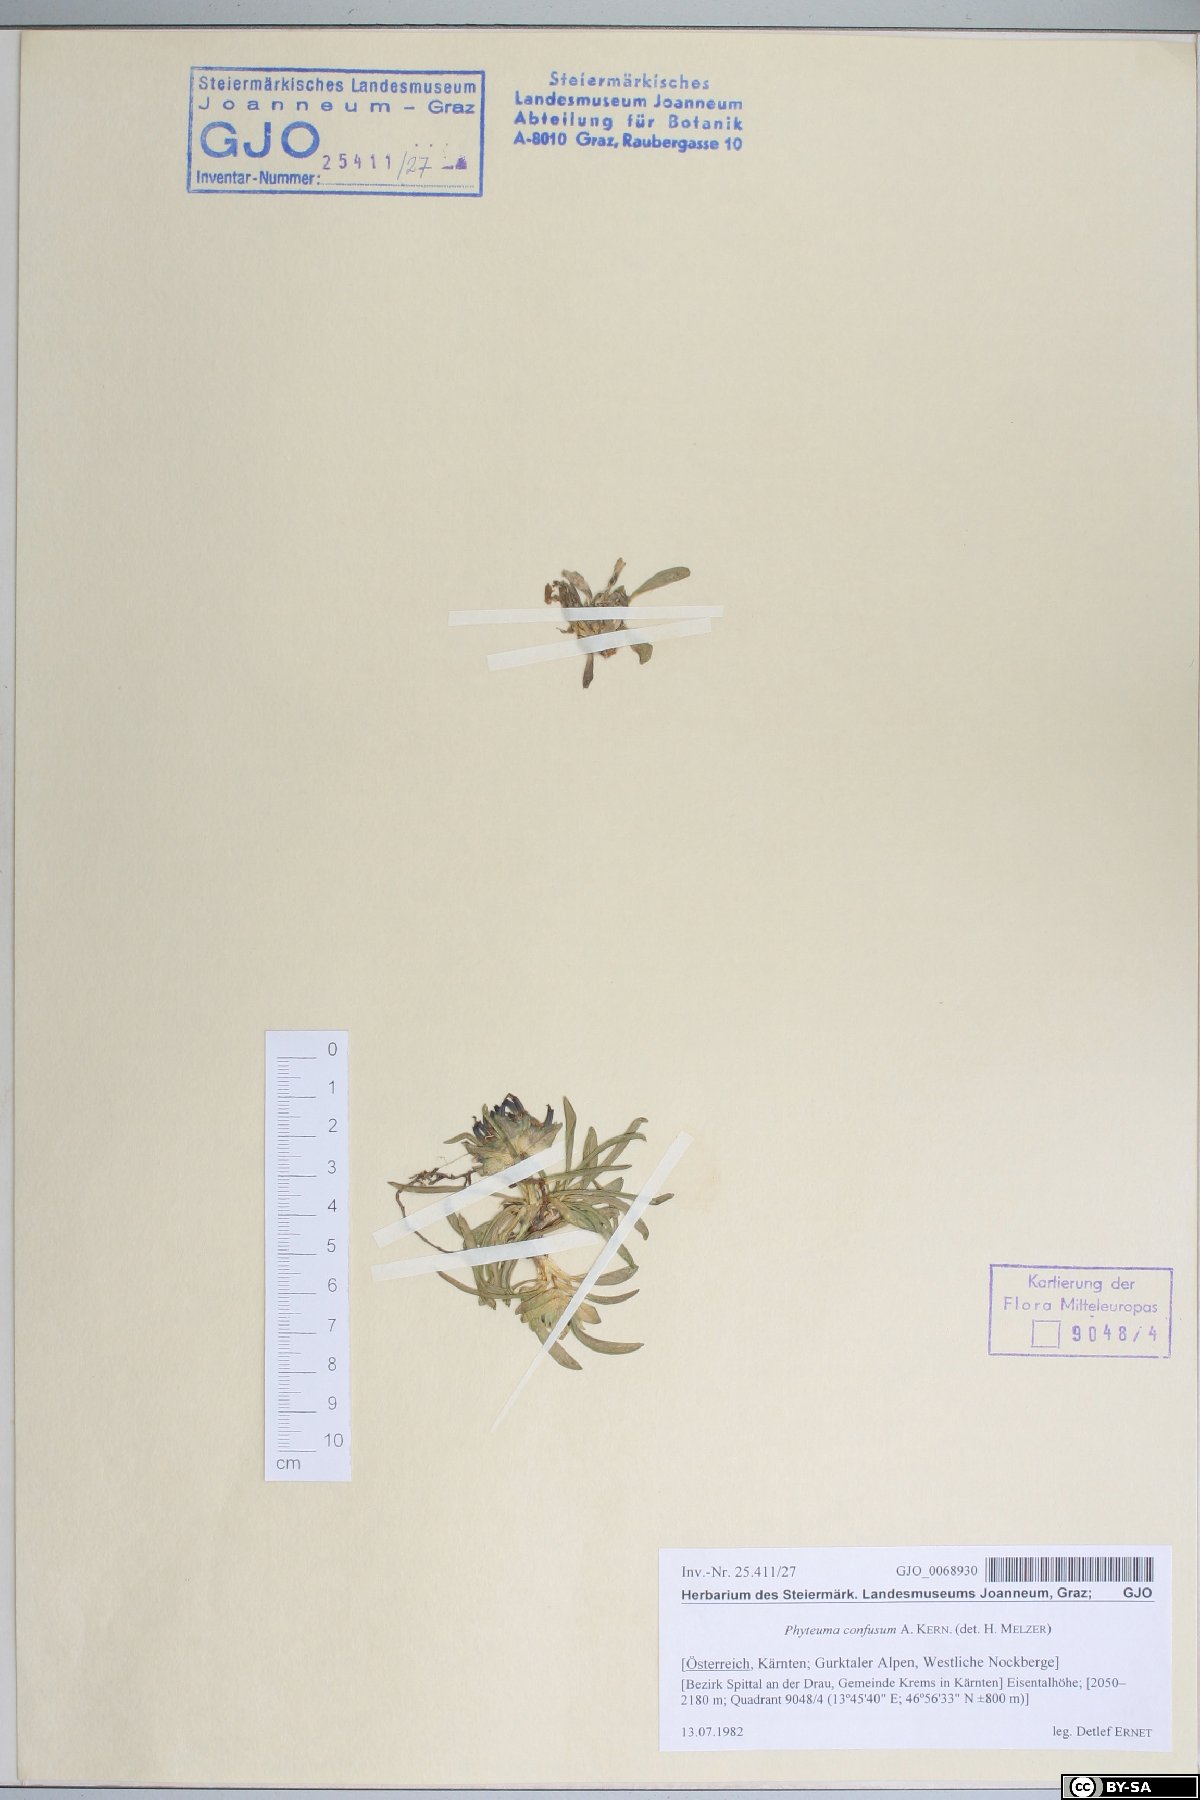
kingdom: Plantae
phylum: Tracheophyta
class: Magnoliopsida
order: Asterales
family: Campanulaceae
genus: Phyteuma
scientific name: Phyteuma confusum
